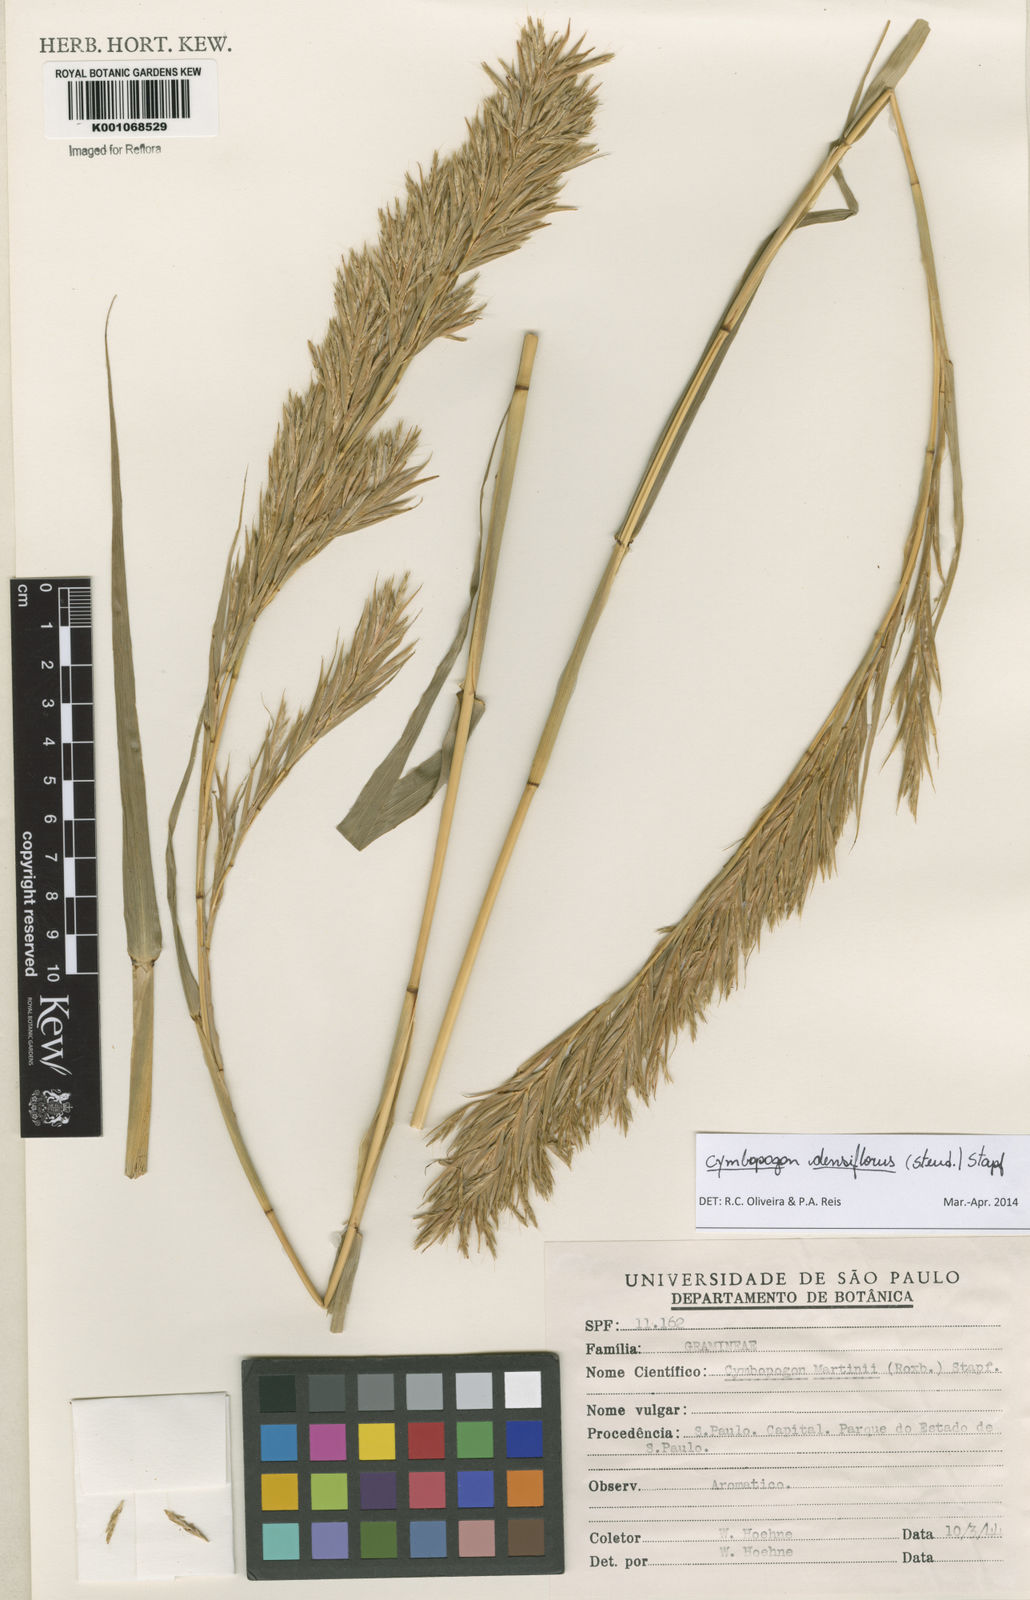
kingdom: Plantae
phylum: Tracheophyta
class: Liliopsida
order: Poales
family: Poaceae
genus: Cymbopogon
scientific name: Cymbopogon densiflorus
